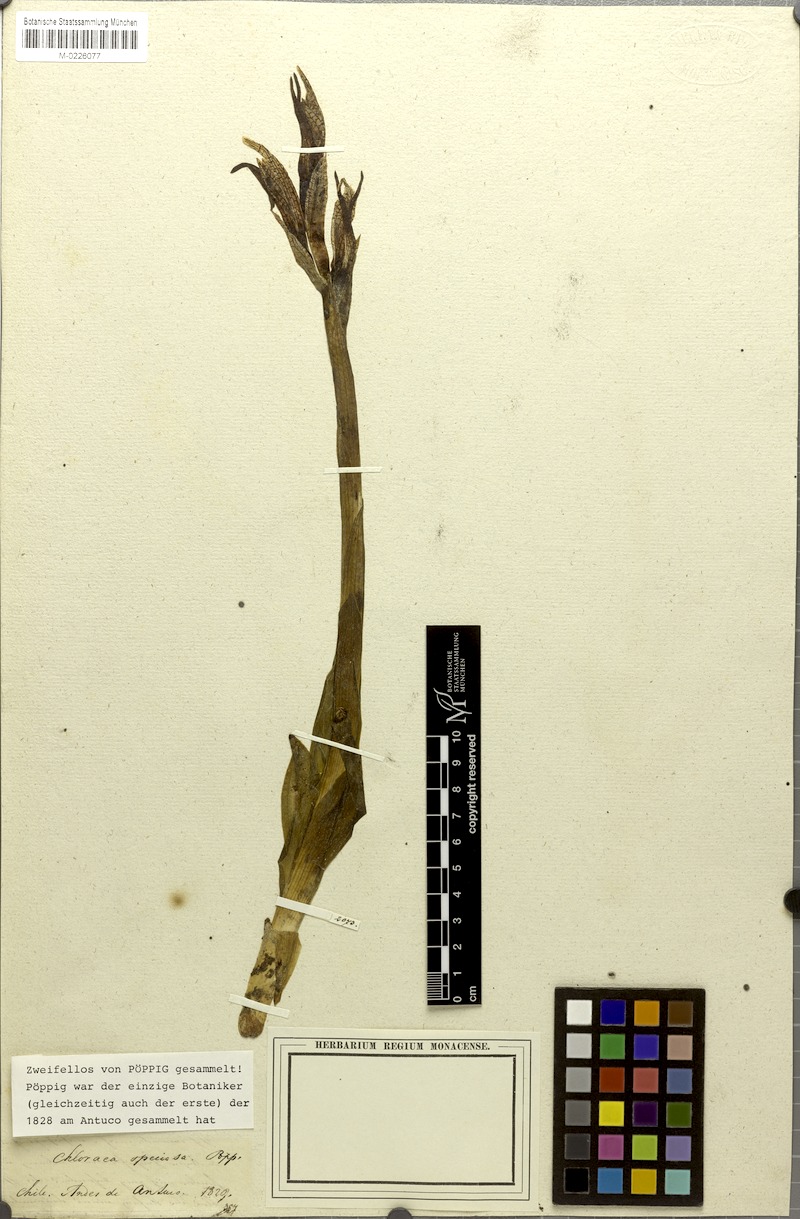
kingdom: Plantae
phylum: Tracheophyta
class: Liliopsida
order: Asparagales
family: Orchidaceae
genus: Chloraea
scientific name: Chloraea speciosa
